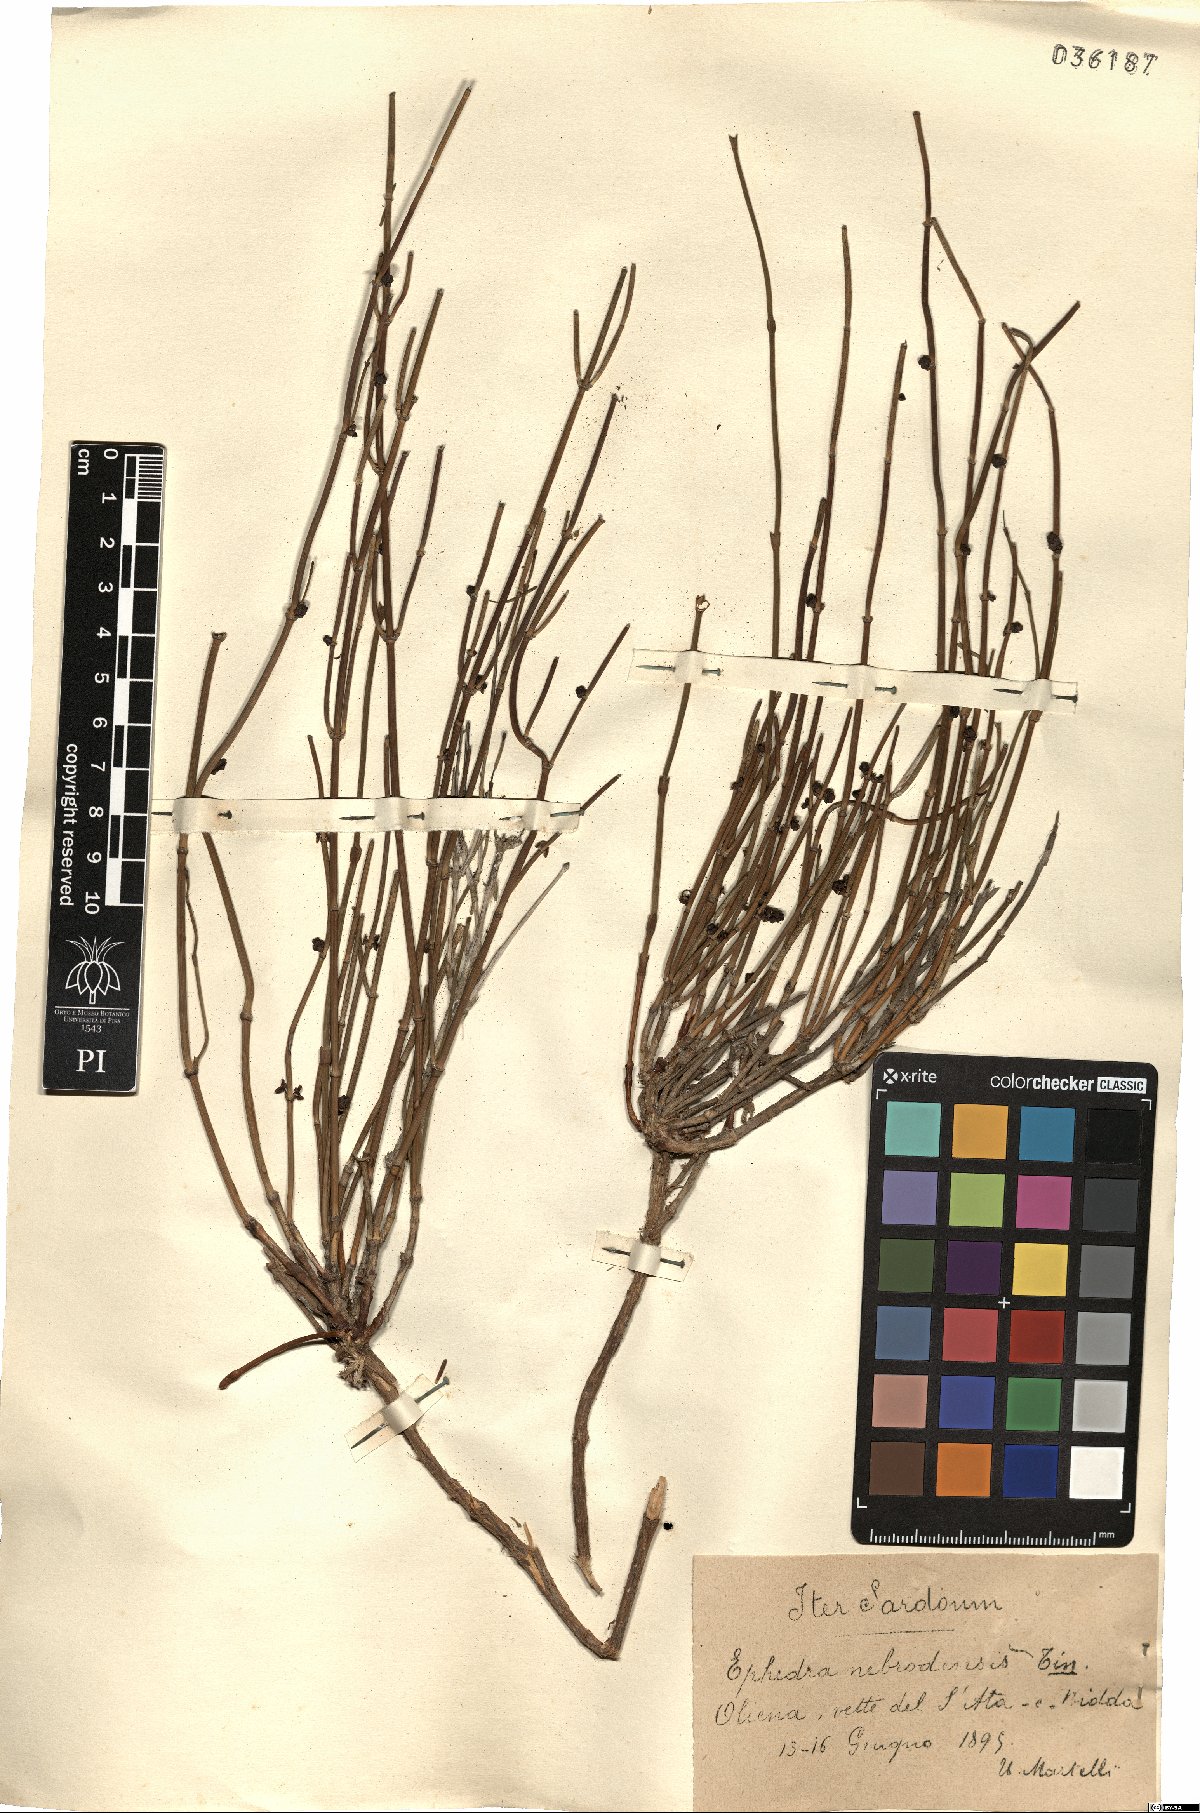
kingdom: Plantae
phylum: Tracheophyta
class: Gnetopsida
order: Ephedrales
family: Ephedraceae
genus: Ephedra
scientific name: Ephedra foeminea
